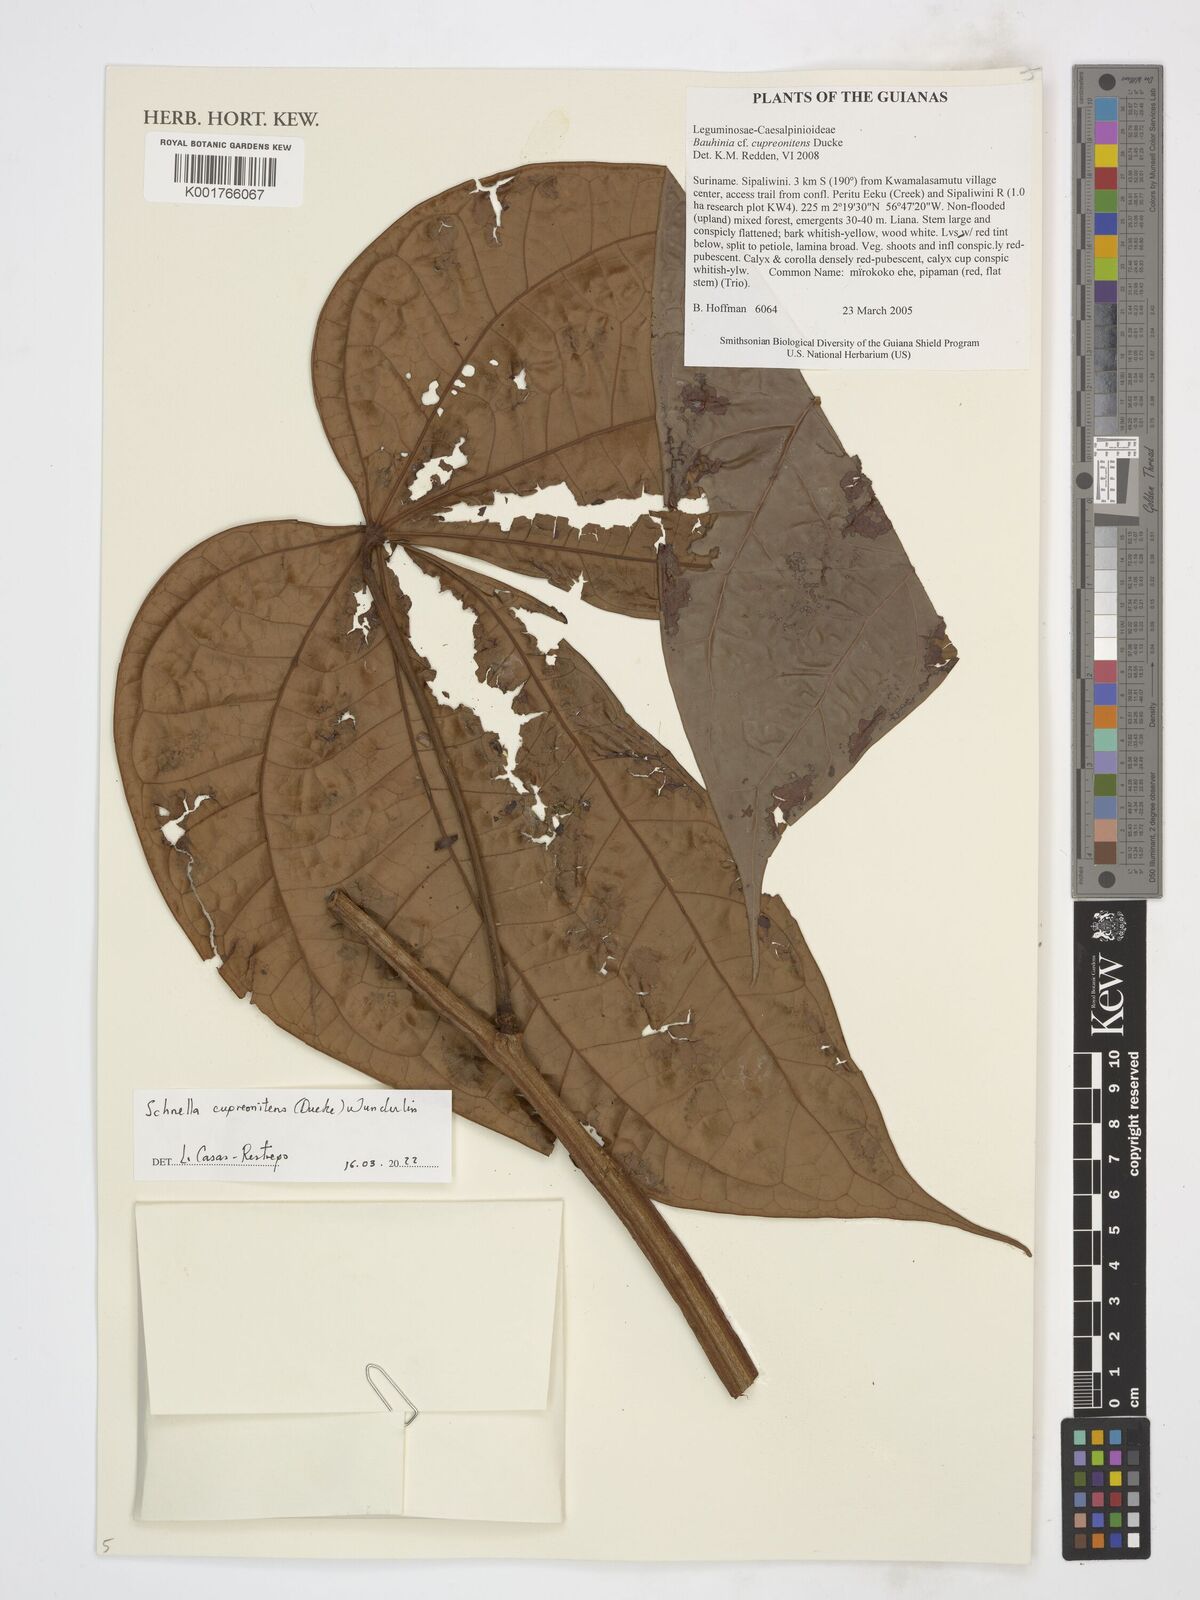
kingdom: Plantae
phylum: Tracheophyta
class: Magnoliopsida
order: Fabales
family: Fabaceae
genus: Schnella
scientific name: Schnella cupreonitens
